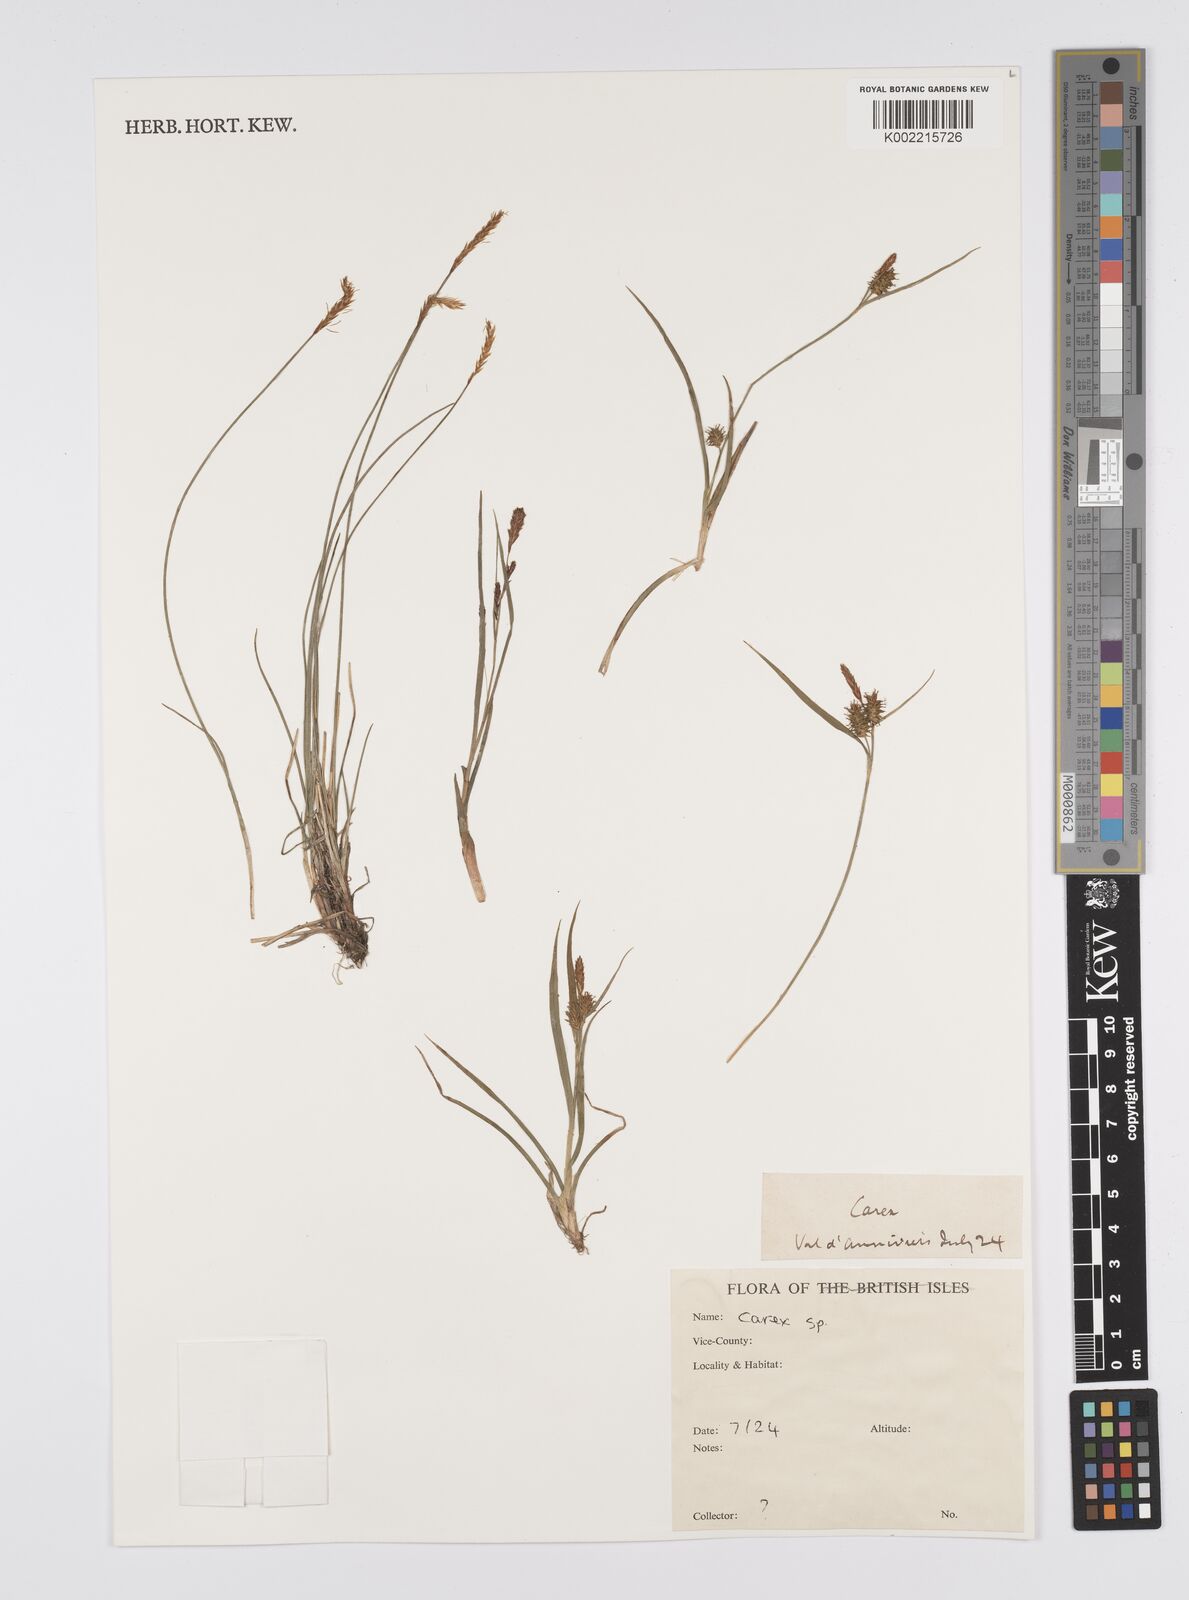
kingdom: Plantae
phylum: Tracheophyta
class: Liliopsida
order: Poales
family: Cyperaceae
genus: Carex
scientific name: Carex
